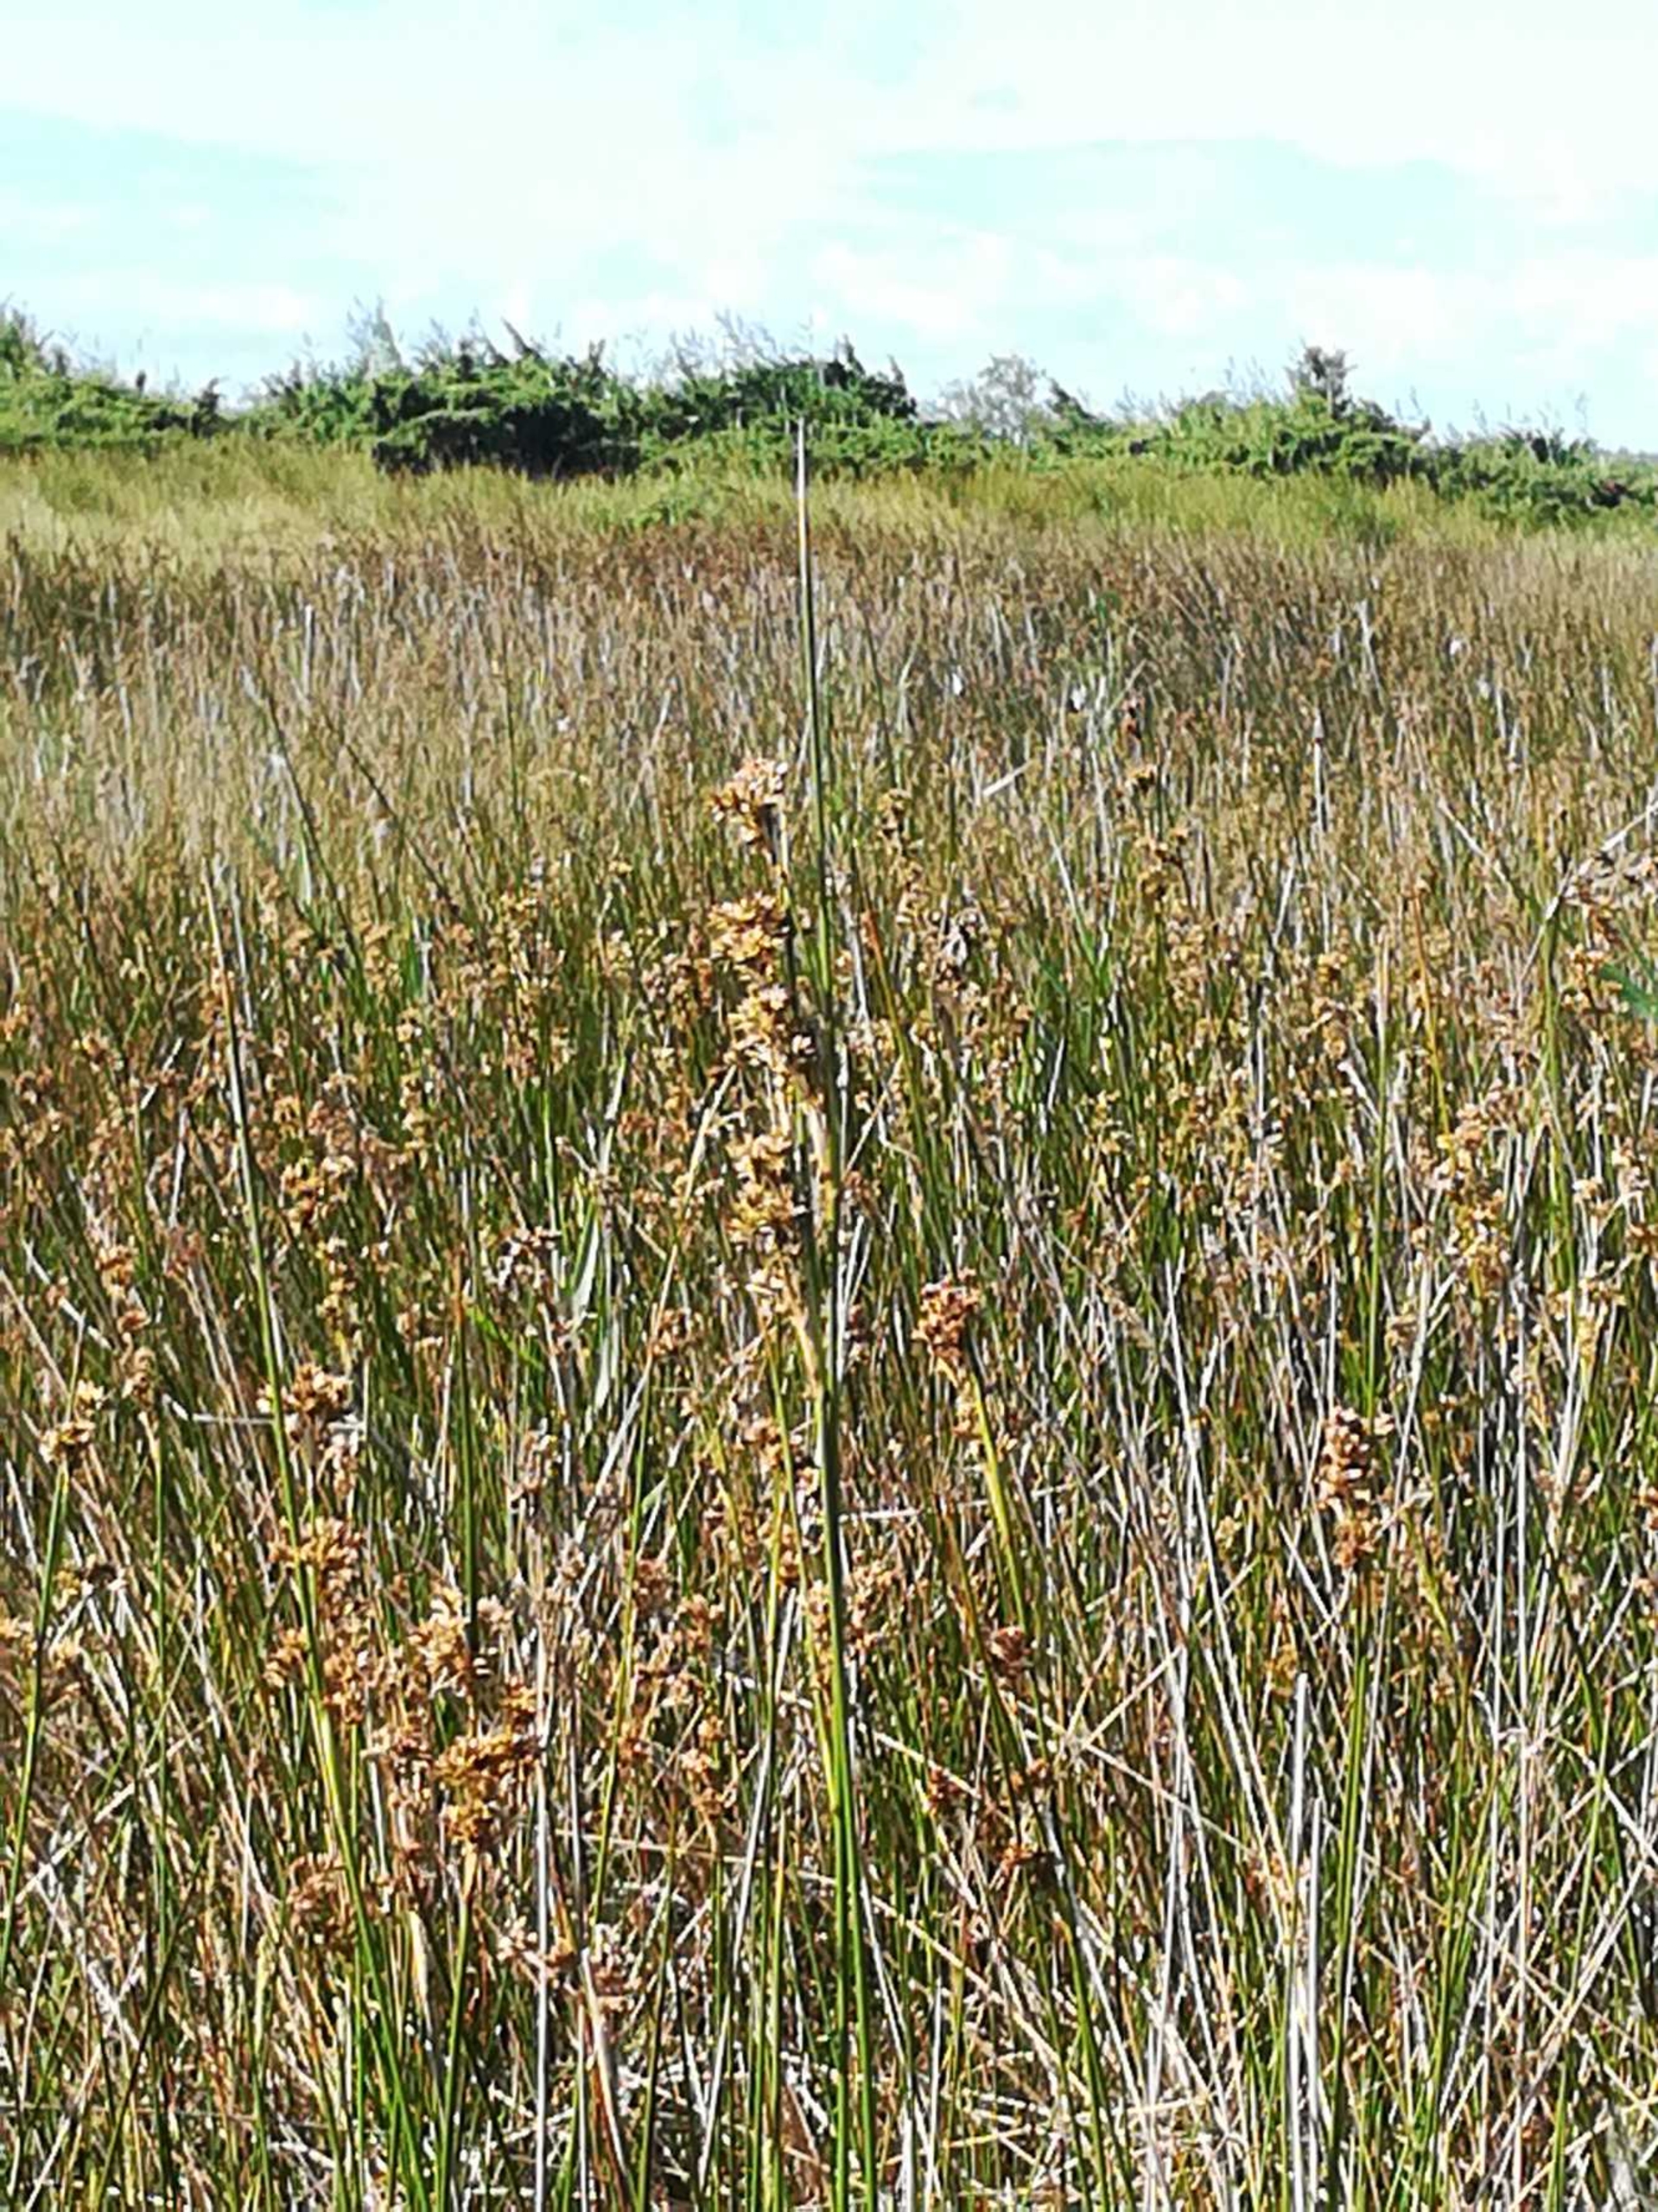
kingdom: Plantae
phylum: Tracheophyta
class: Liliopsida
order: Poales
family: Juncaceae
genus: Juncus
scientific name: Juncus maritimus
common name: Strand-siv
